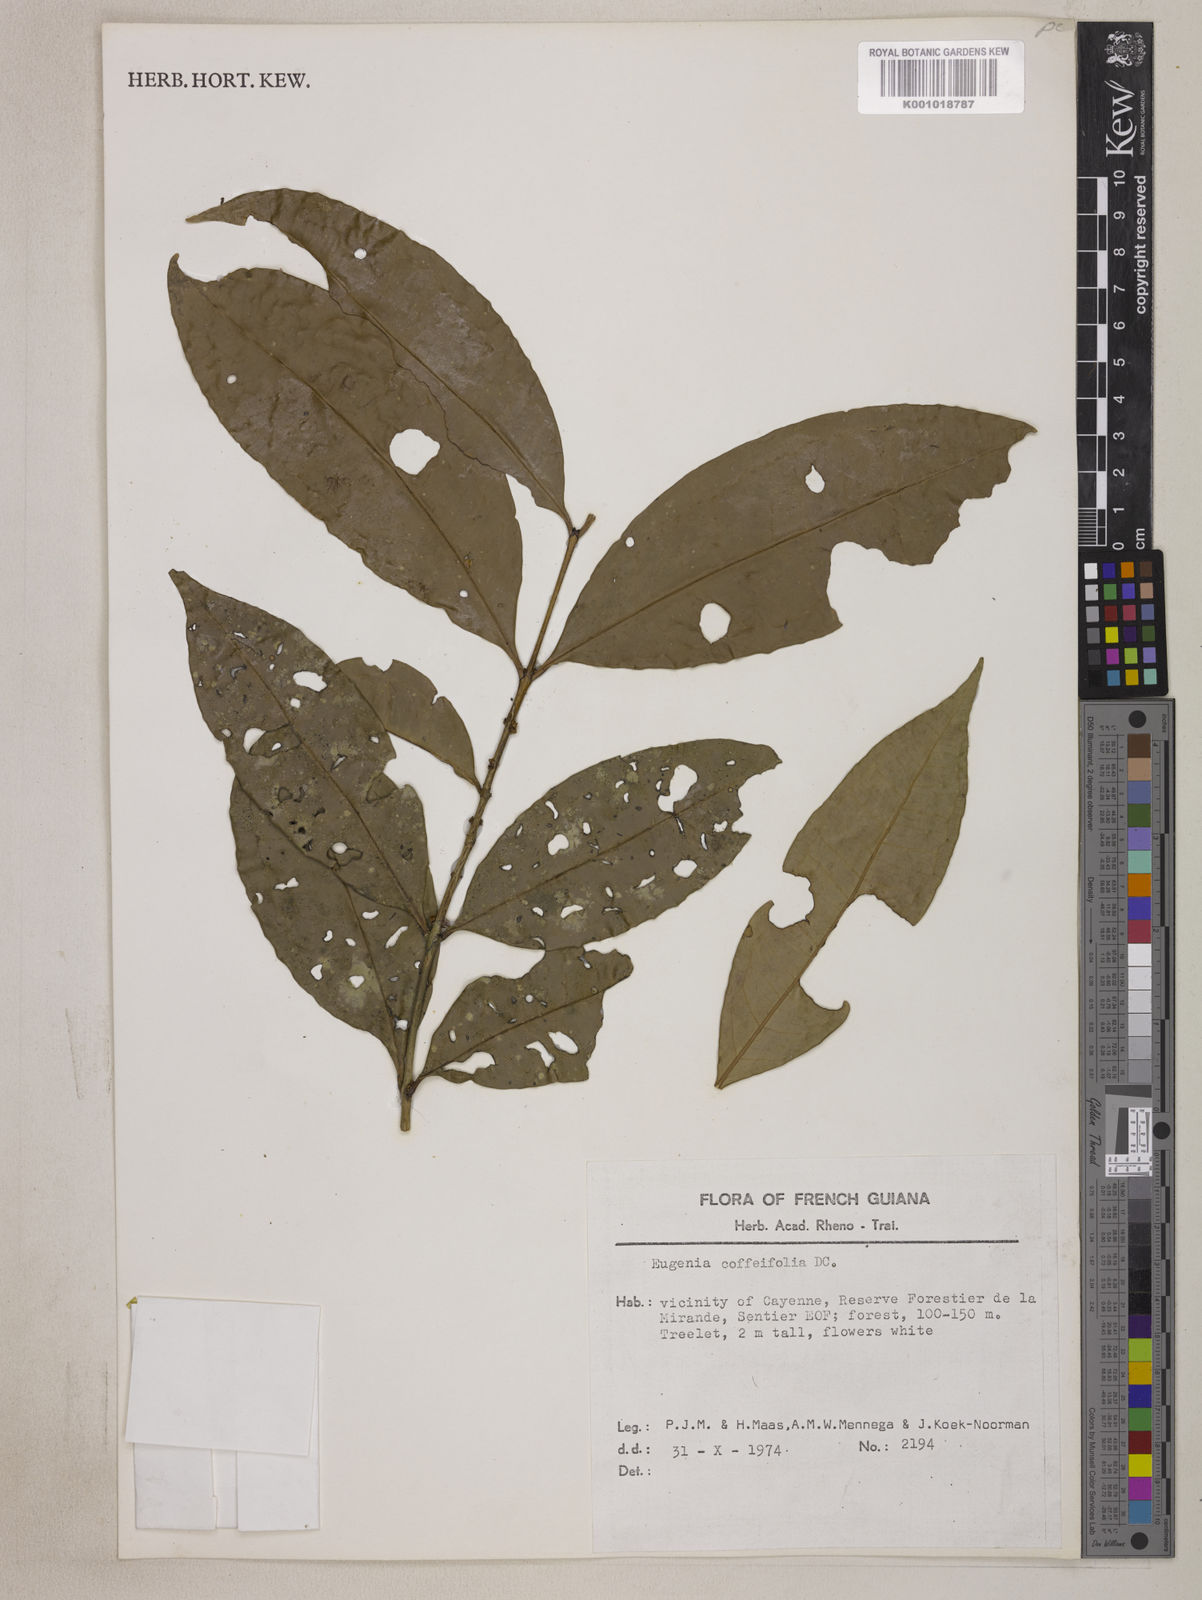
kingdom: Plantae
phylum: Tracheophyta
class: Magnoliopsida
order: Myrtales
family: Myrtaceae
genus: Eugenia
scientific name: Eugenia coffeifolia
